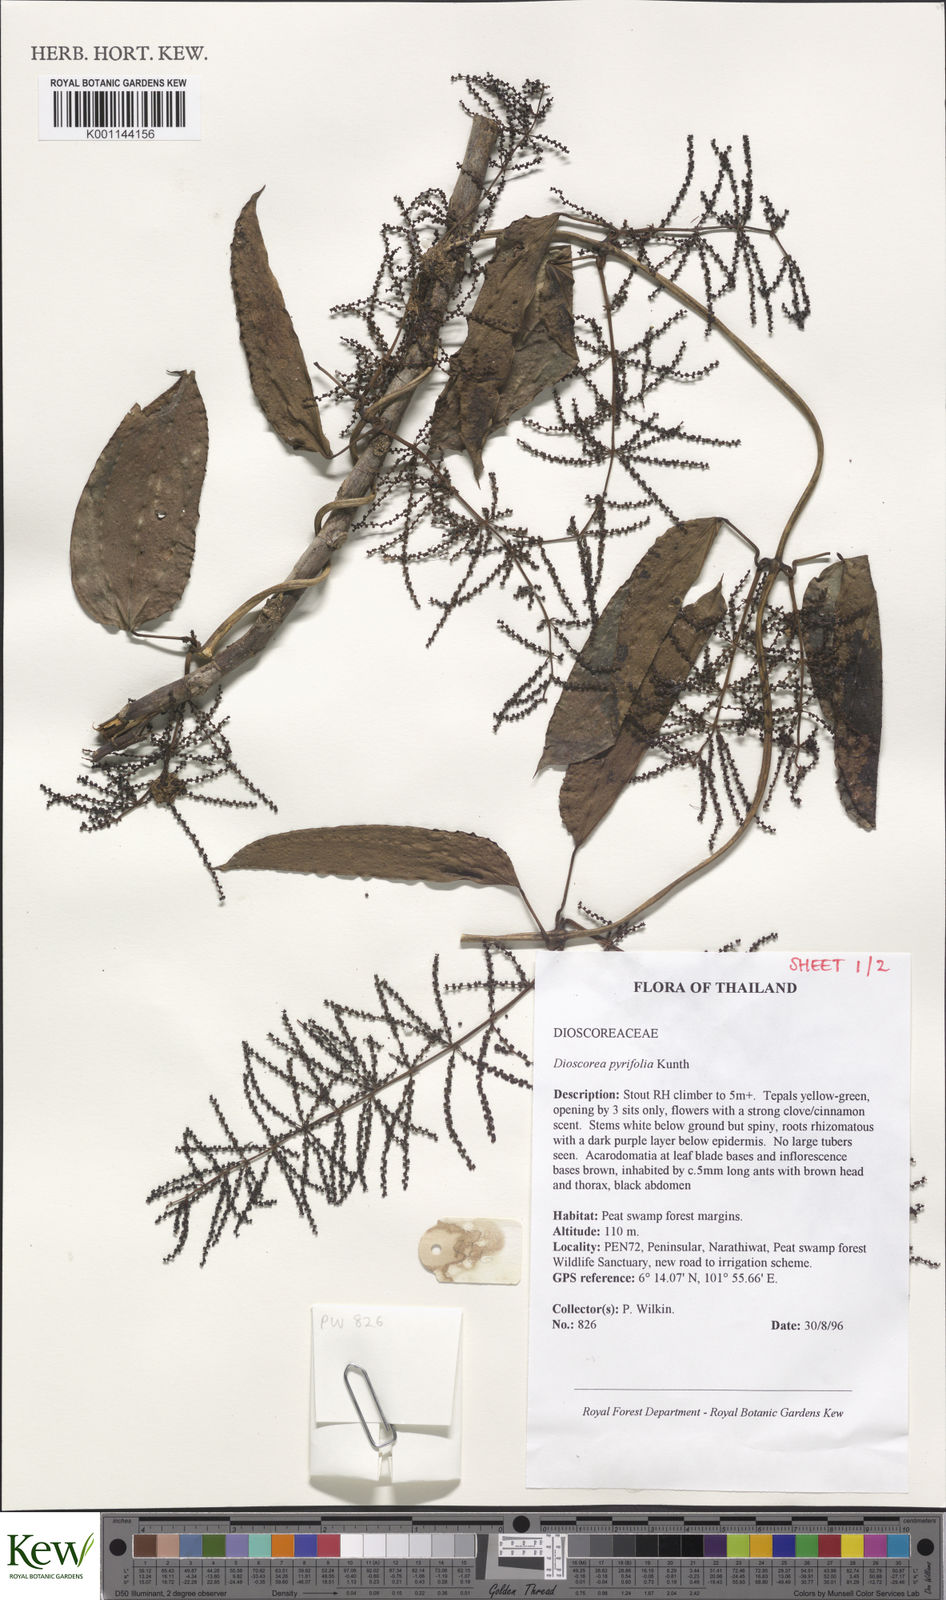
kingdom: Plantae
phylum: Tracheophyta
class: Liliopsida
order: Dioscoreales
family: Dioscoreaceae
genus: Dioscorea
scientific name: Dioscorea pyrifolia
